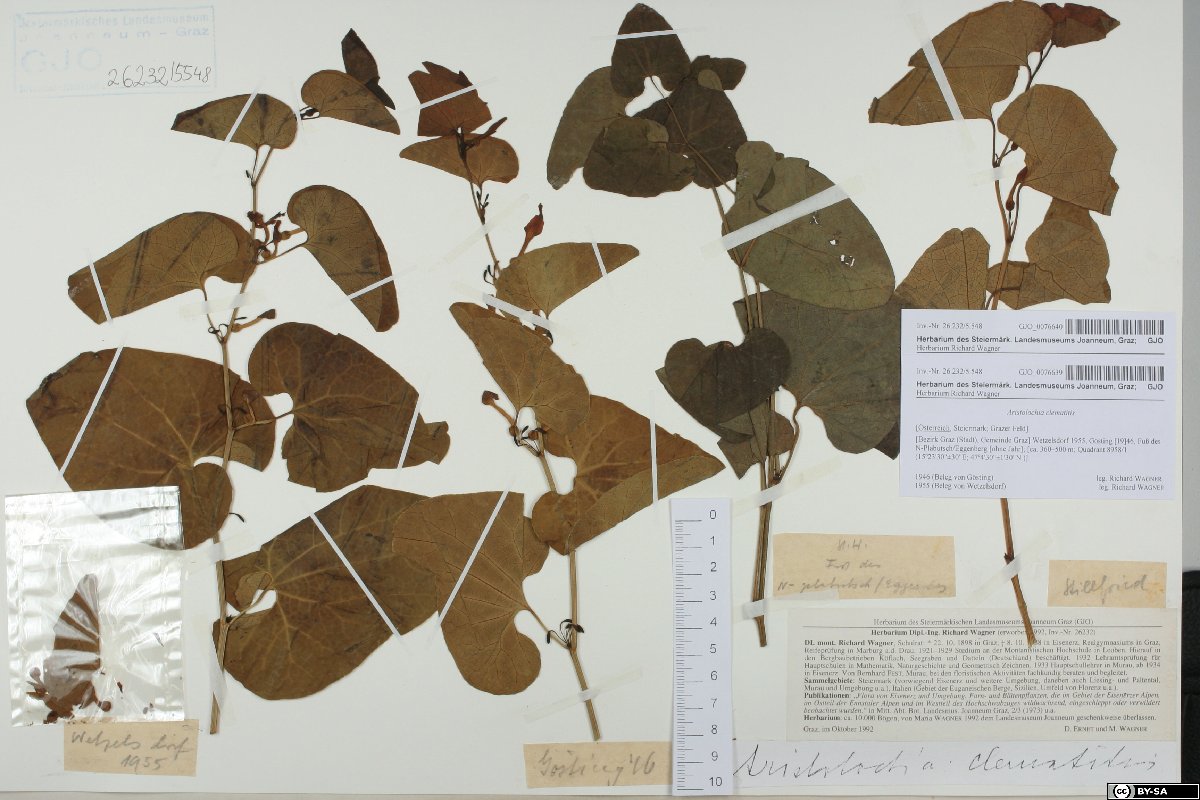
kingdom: Plantae
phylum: Tracheophyta
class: Magnoliopsida
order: Piperales
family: Aristolochiaceae
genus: Aristolochia
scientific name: Aristolochia clematitis
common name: Birthwort
